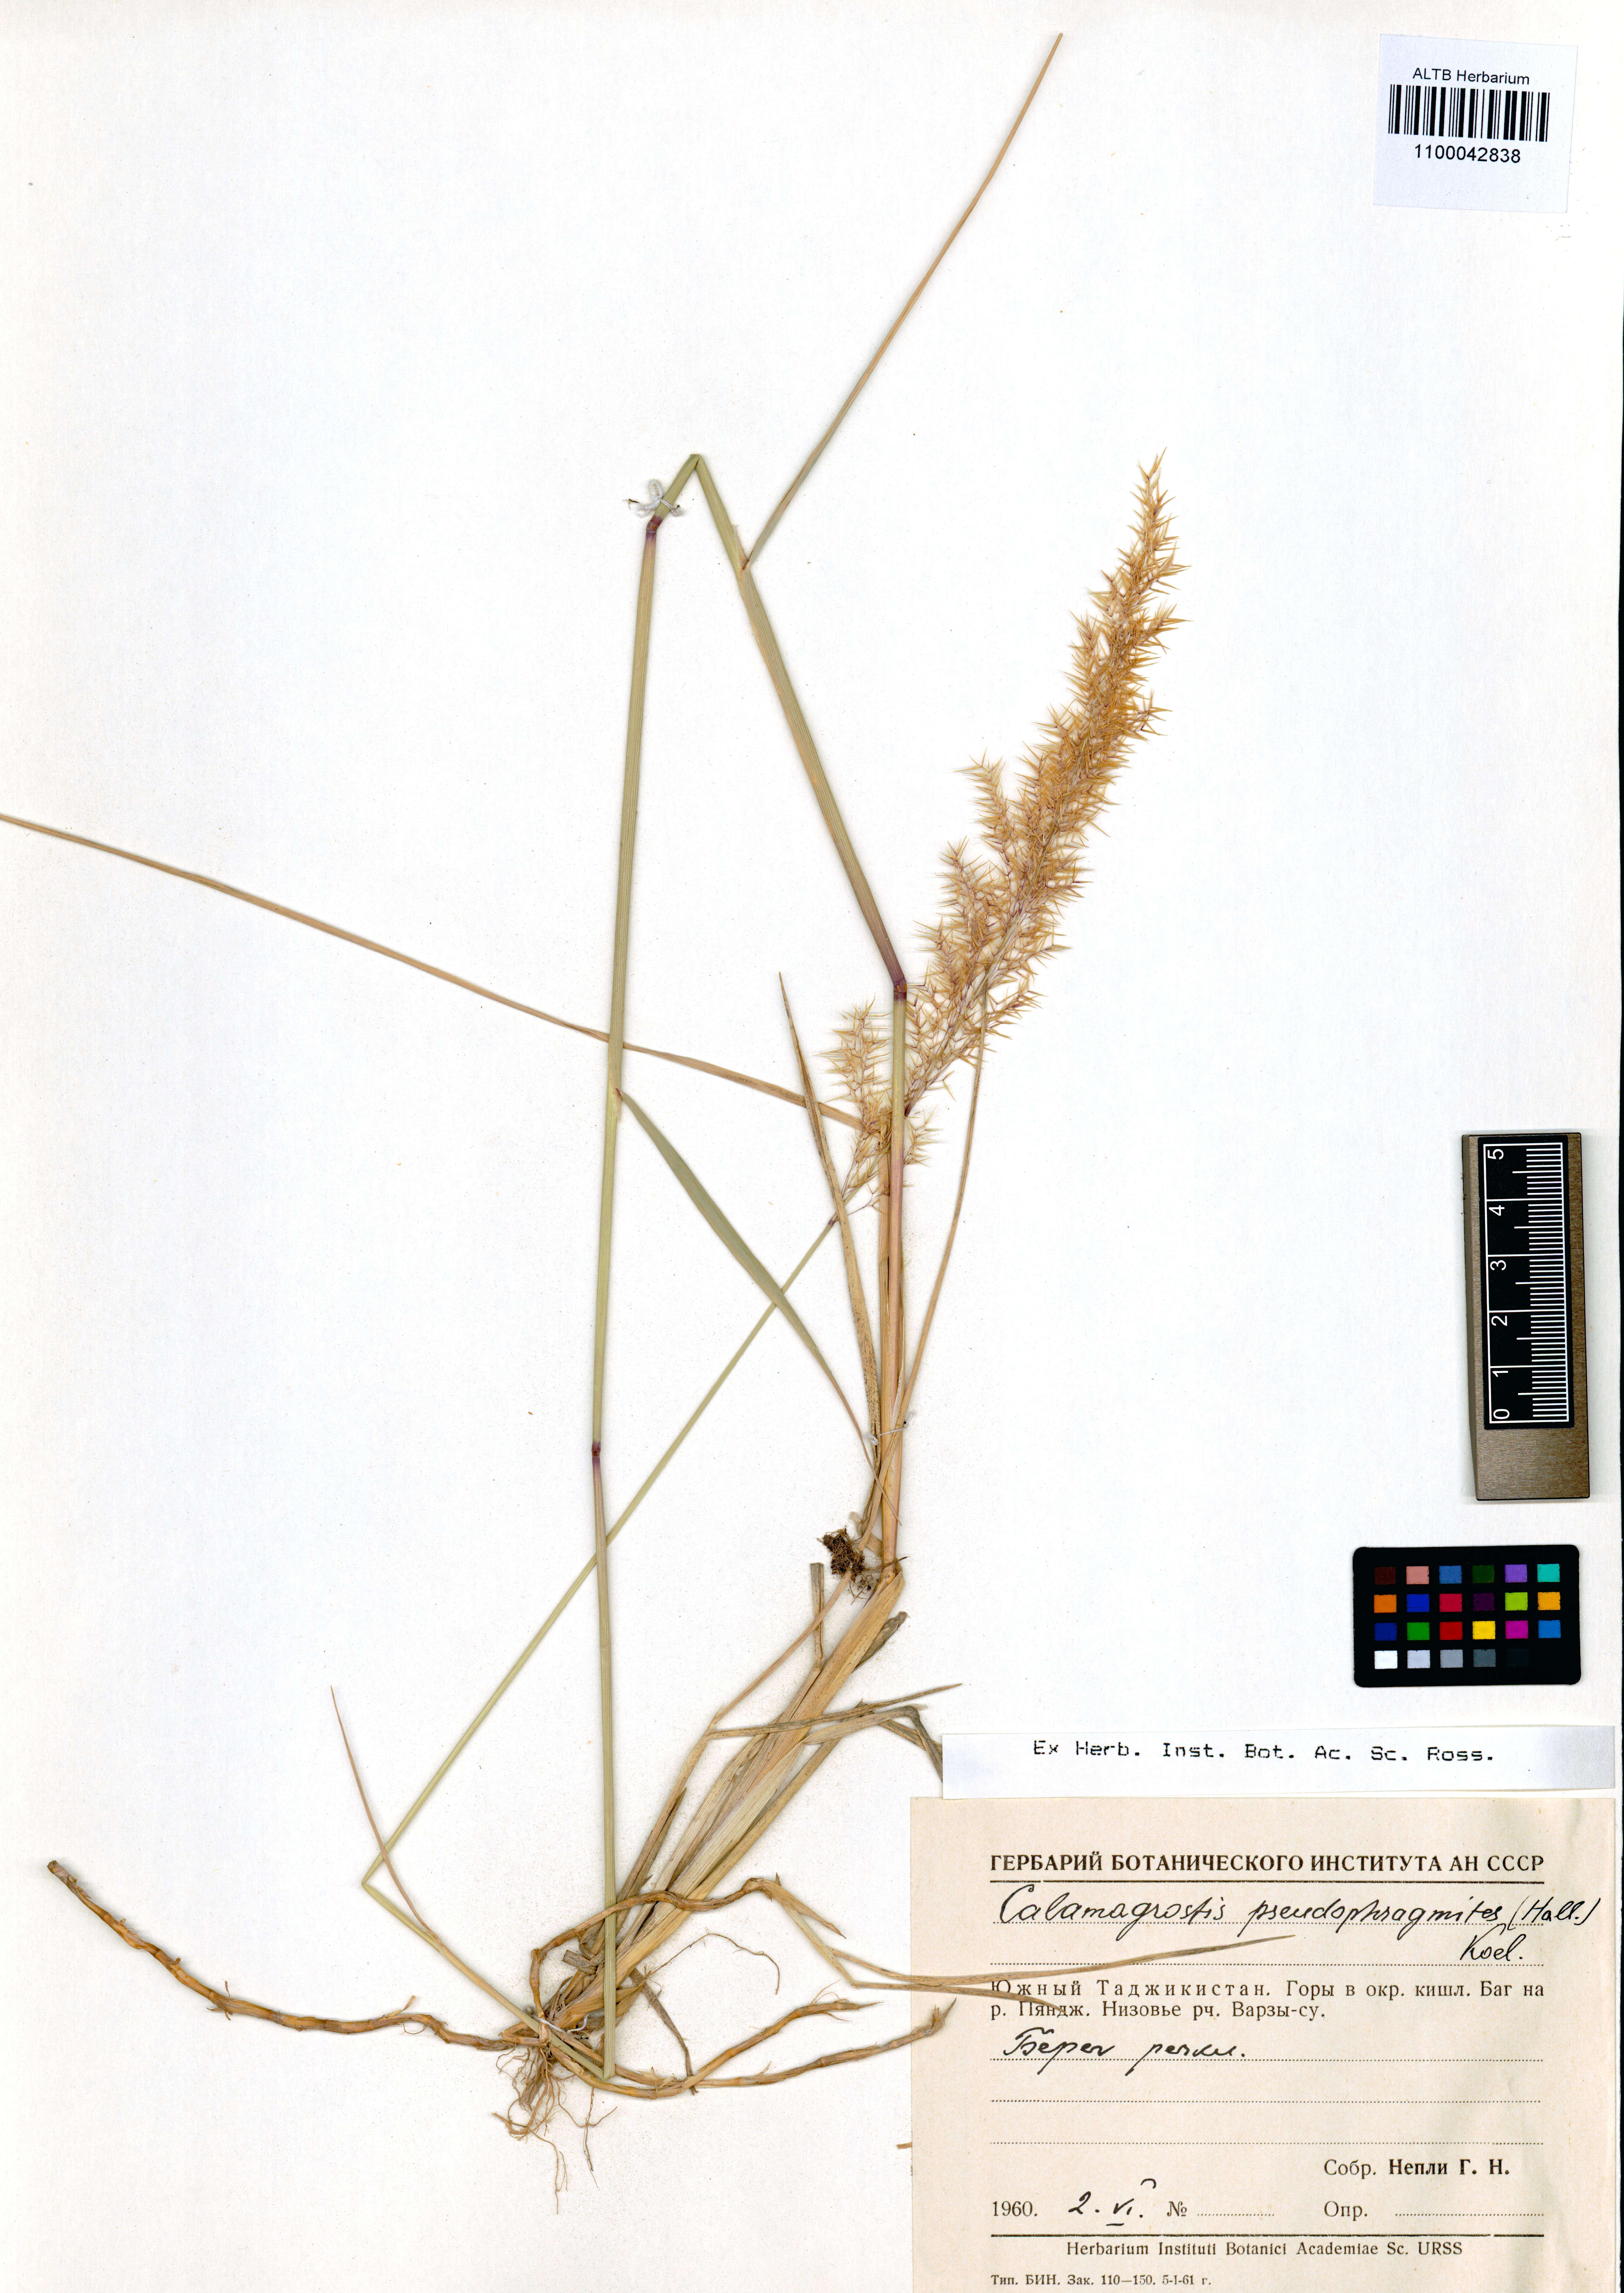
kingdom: Plantae
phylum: Tracheophyta
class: Liliopsida
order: Poales
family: Poaceae
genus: Calamagrostis
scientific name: Calamagrostis pseudophragmites
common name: Coastal small-reed
